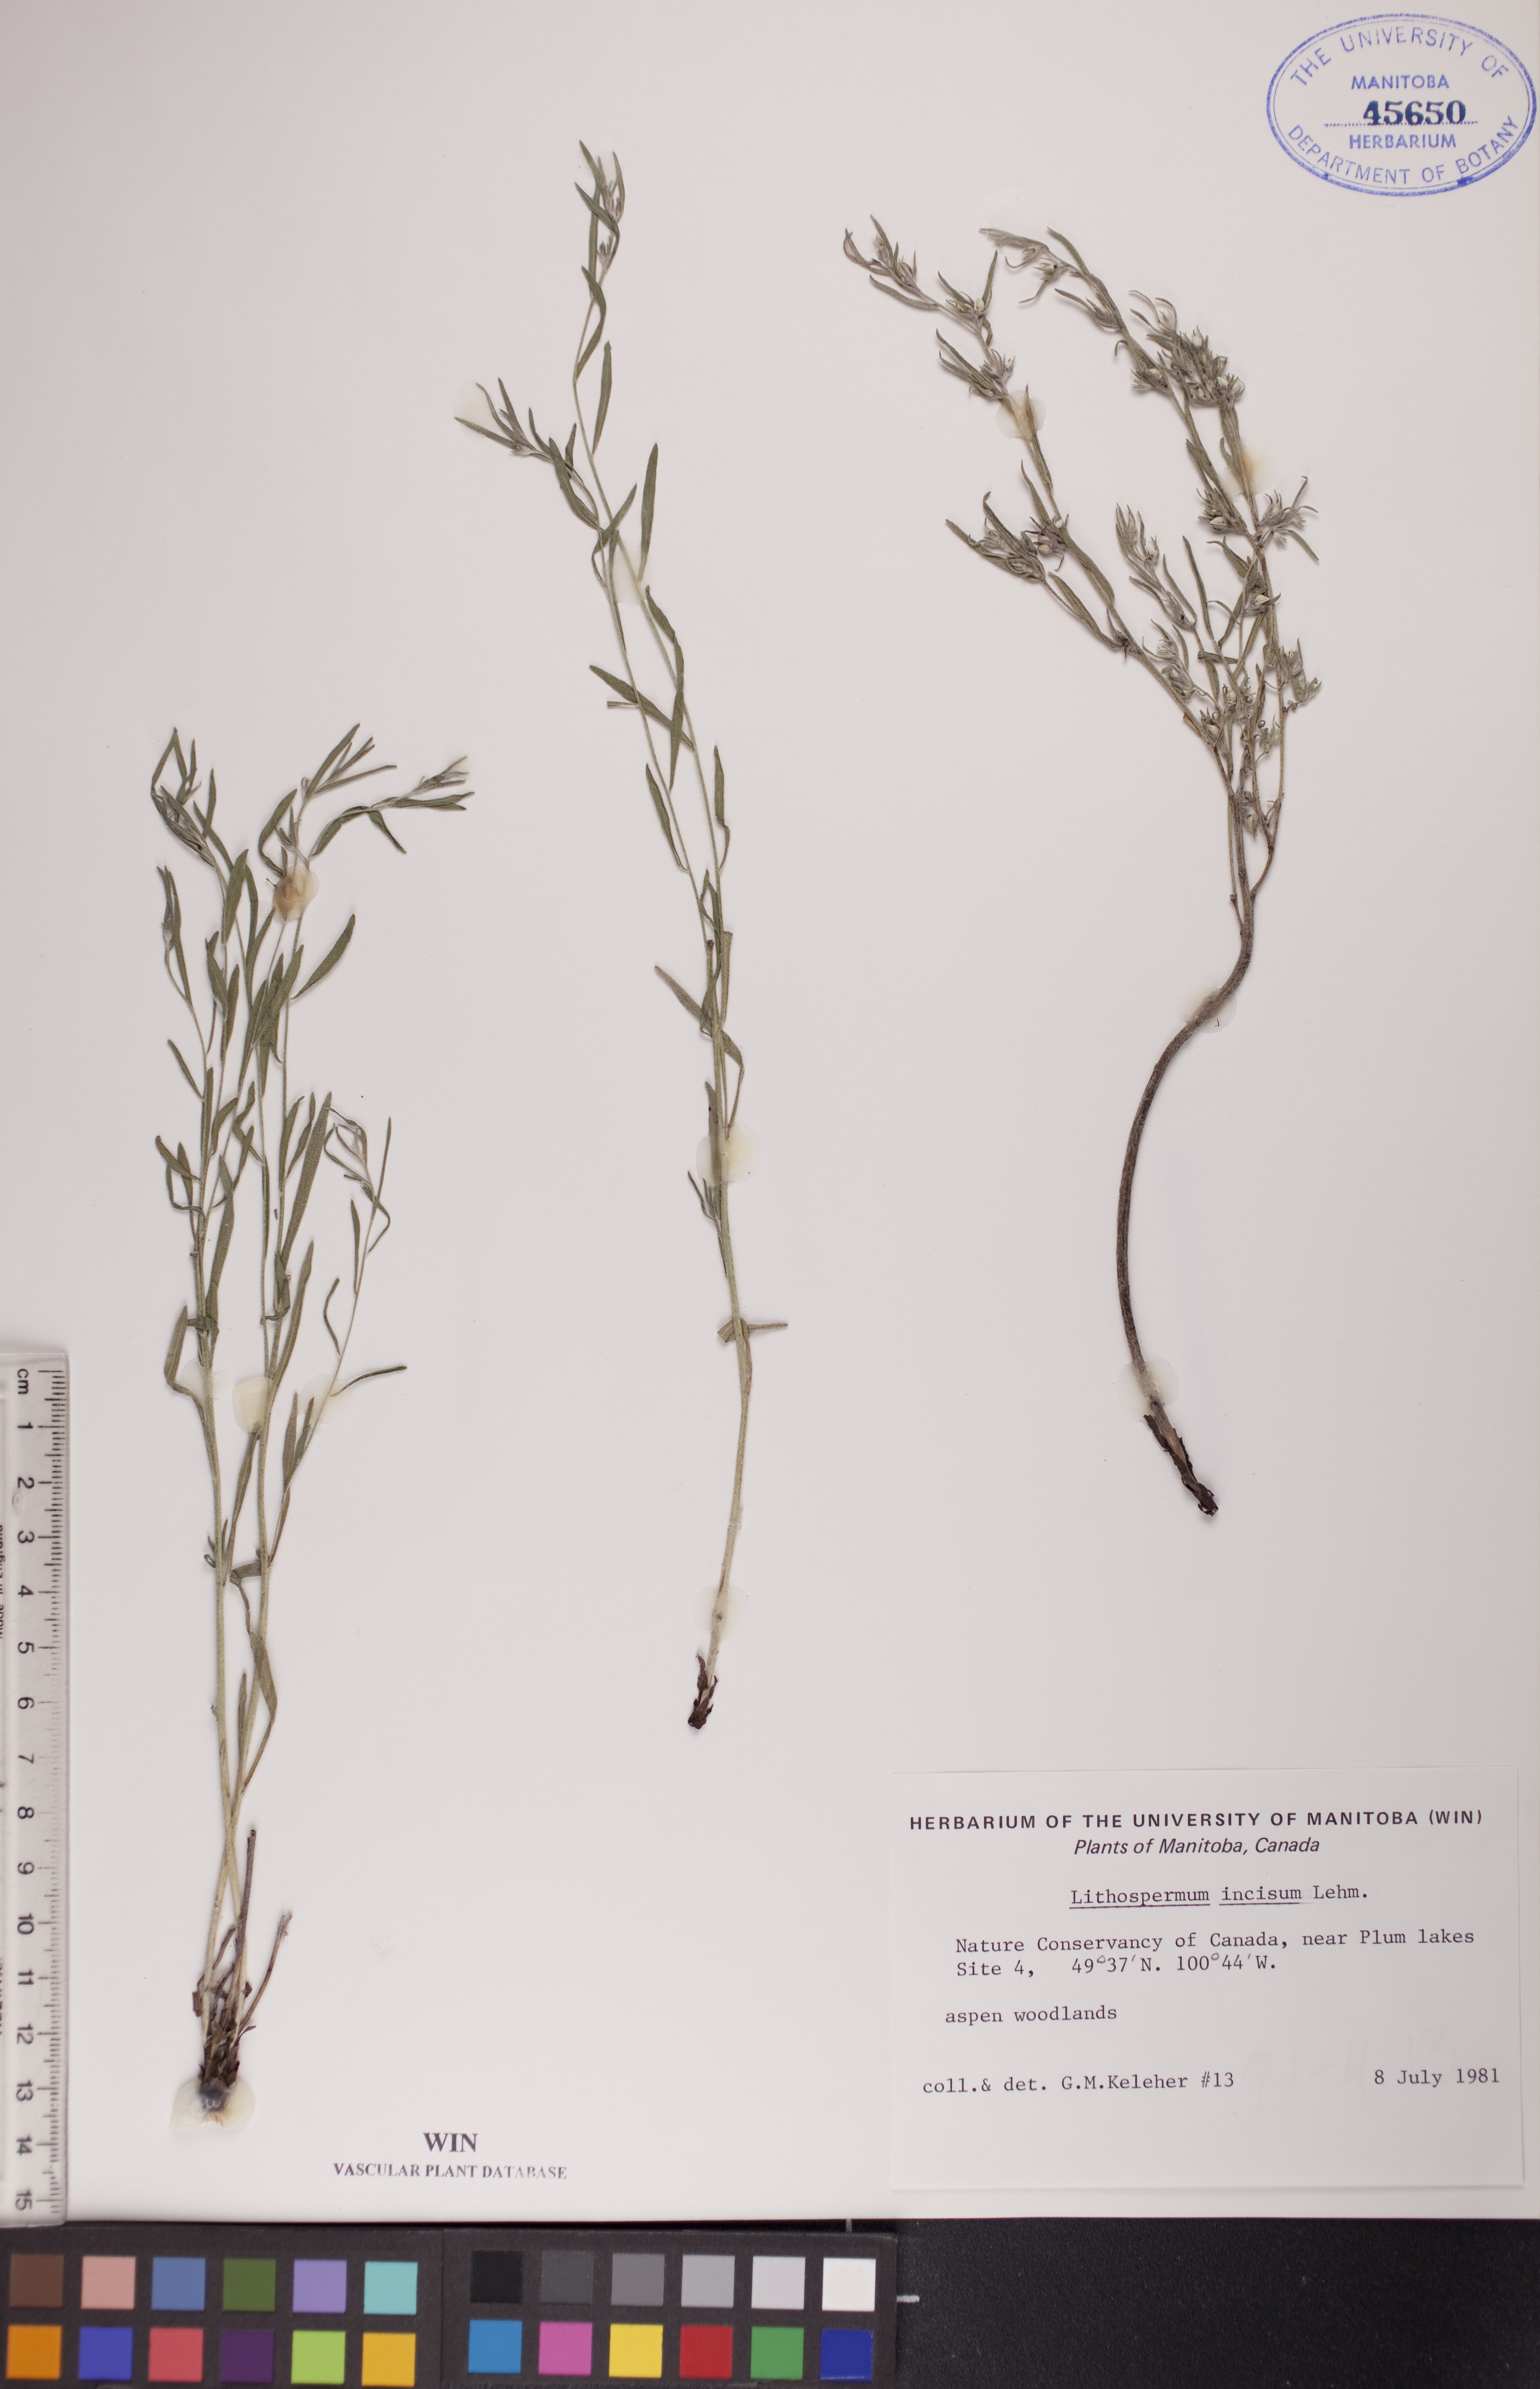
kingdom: Plantae
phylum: Tracheophyta
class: Magnoliopsida
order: Boraginales
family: Boraginaceae
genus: Lithospermum
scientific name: Lithospermum incisum
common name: Fringed gromwell
